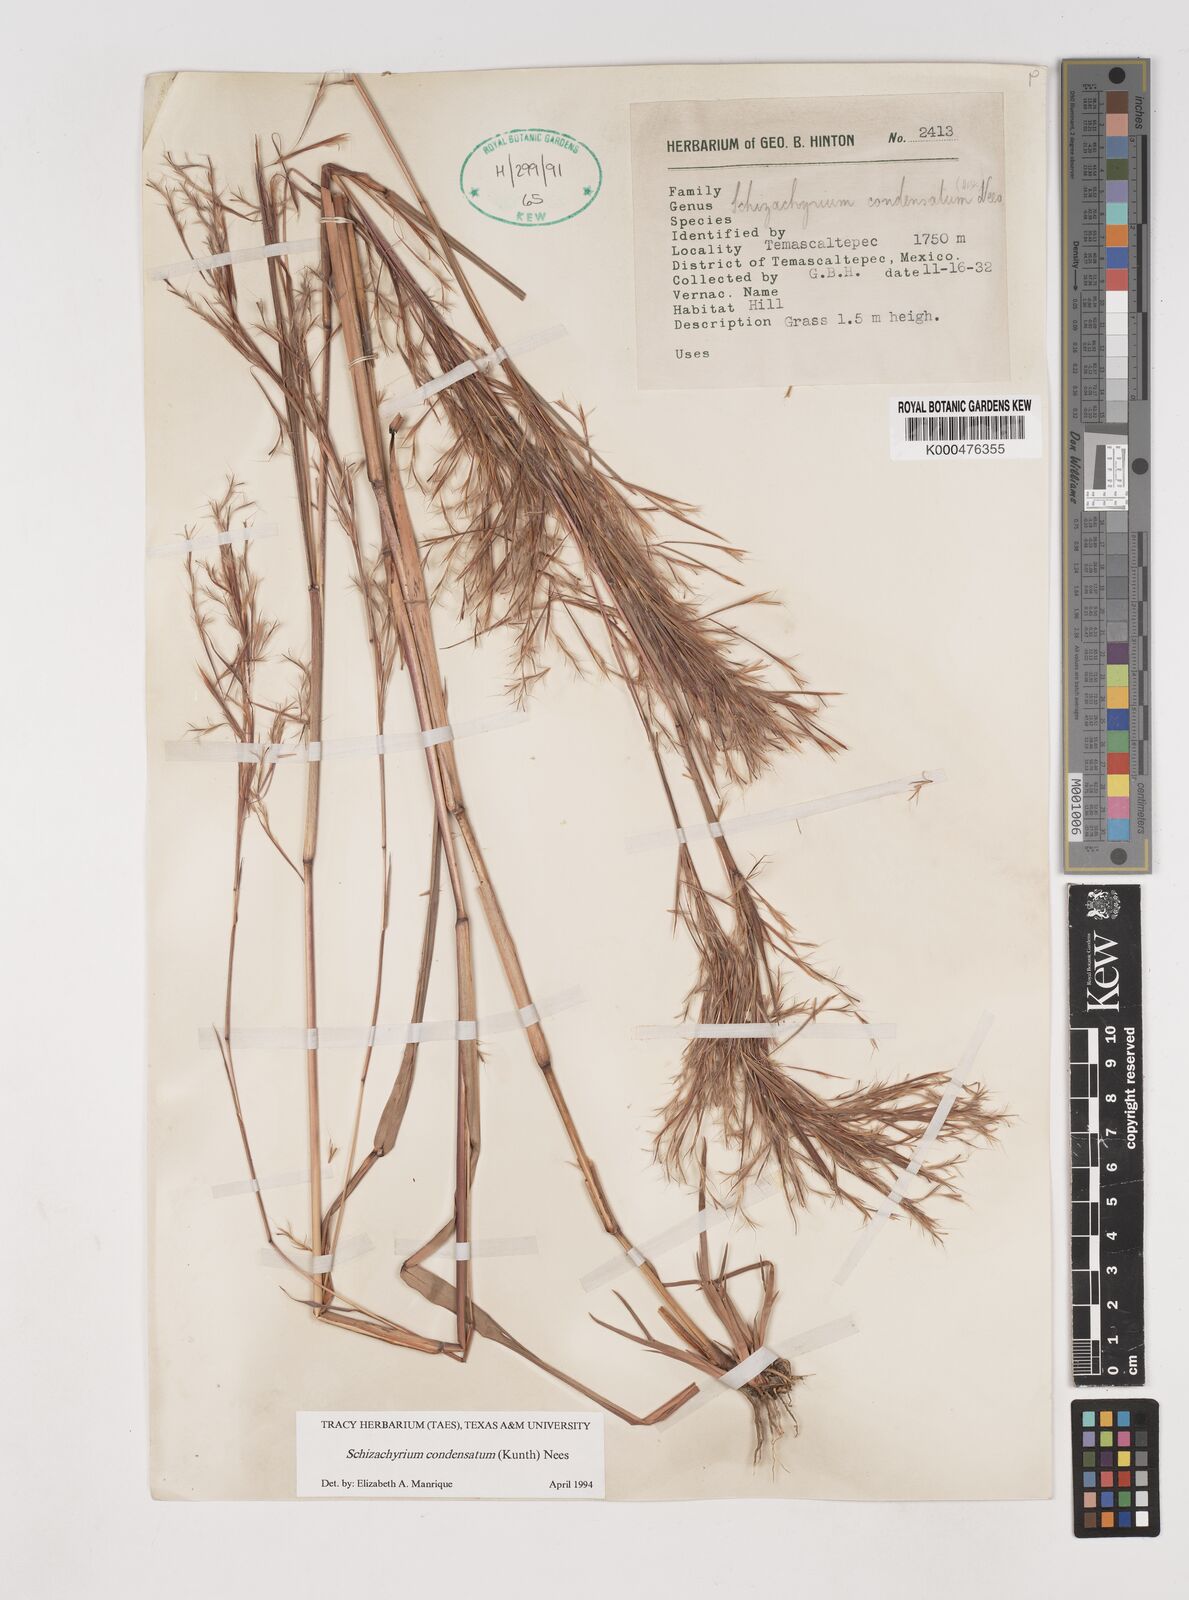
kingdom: Plantae
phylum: Tracheophyta
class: Liliopsida
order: Poales
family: Poaceae
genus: Schizachyrium
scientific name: Schizachyrium condensatum
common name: Bush beardgrass
